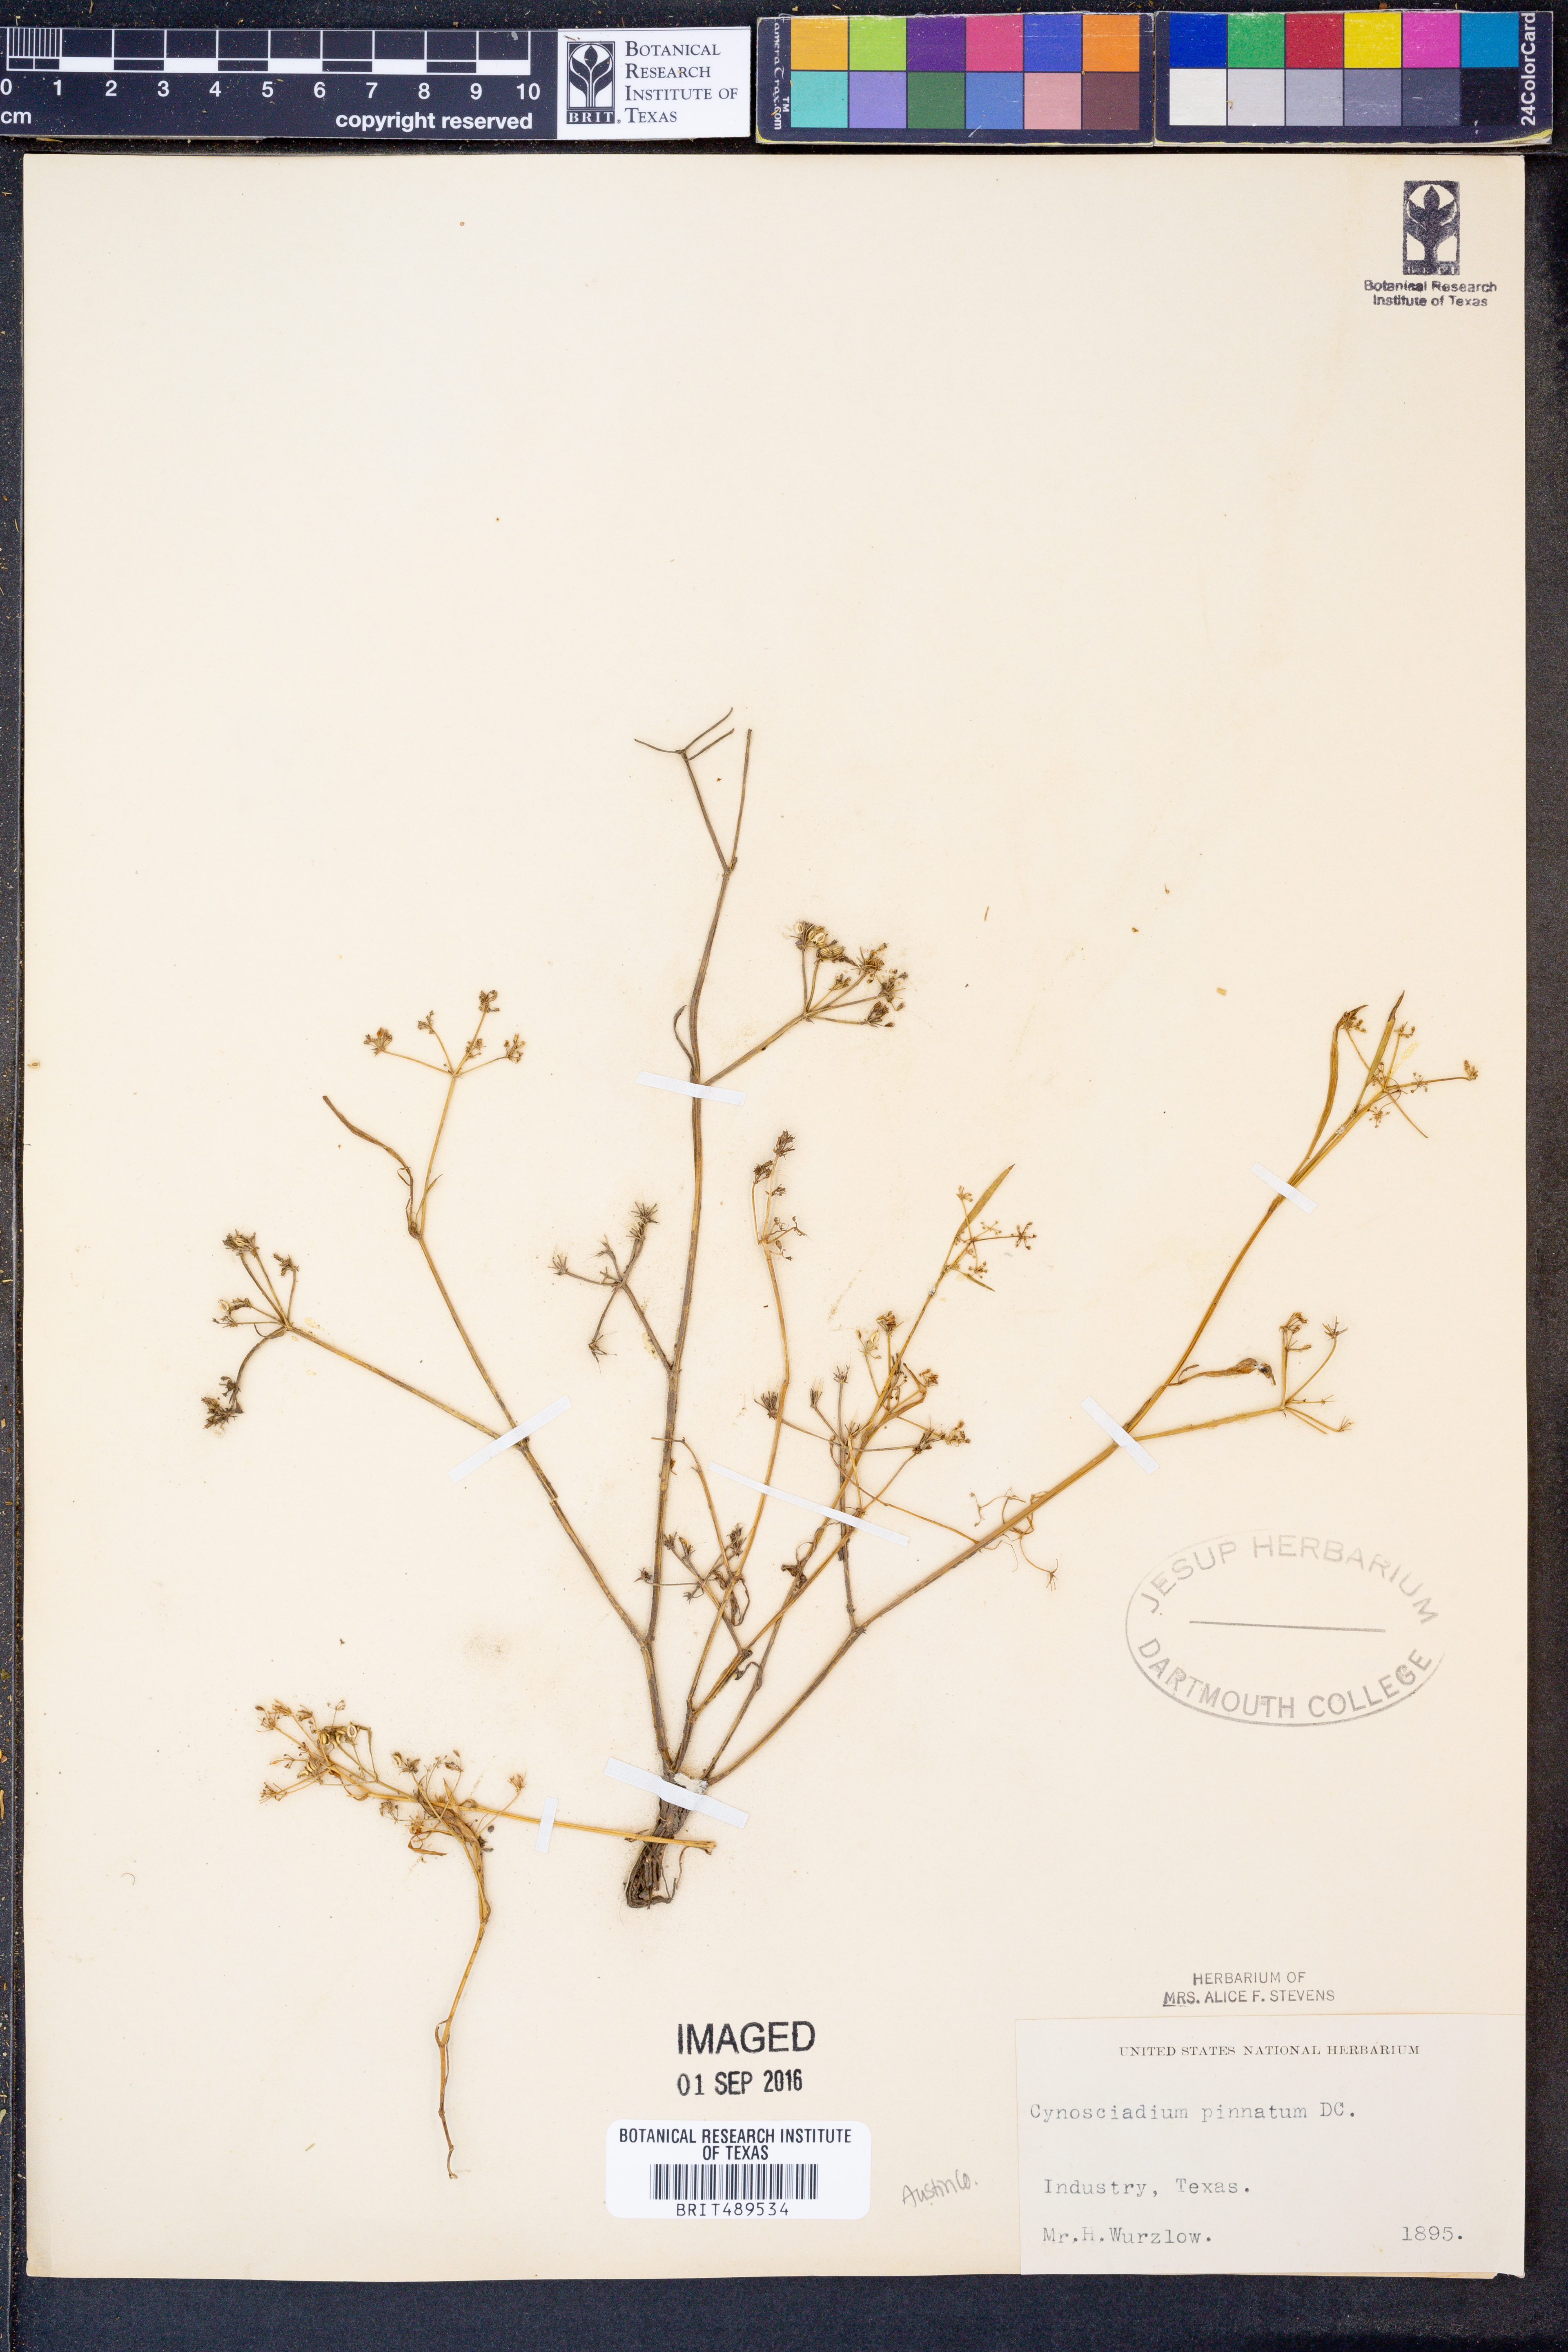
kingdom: Plantae
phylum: Tracheophyta
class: Magnoliopsida
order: Apiales
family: Apiaceae
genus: Limnosciadium
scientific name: Limnosciadium pinnatum
